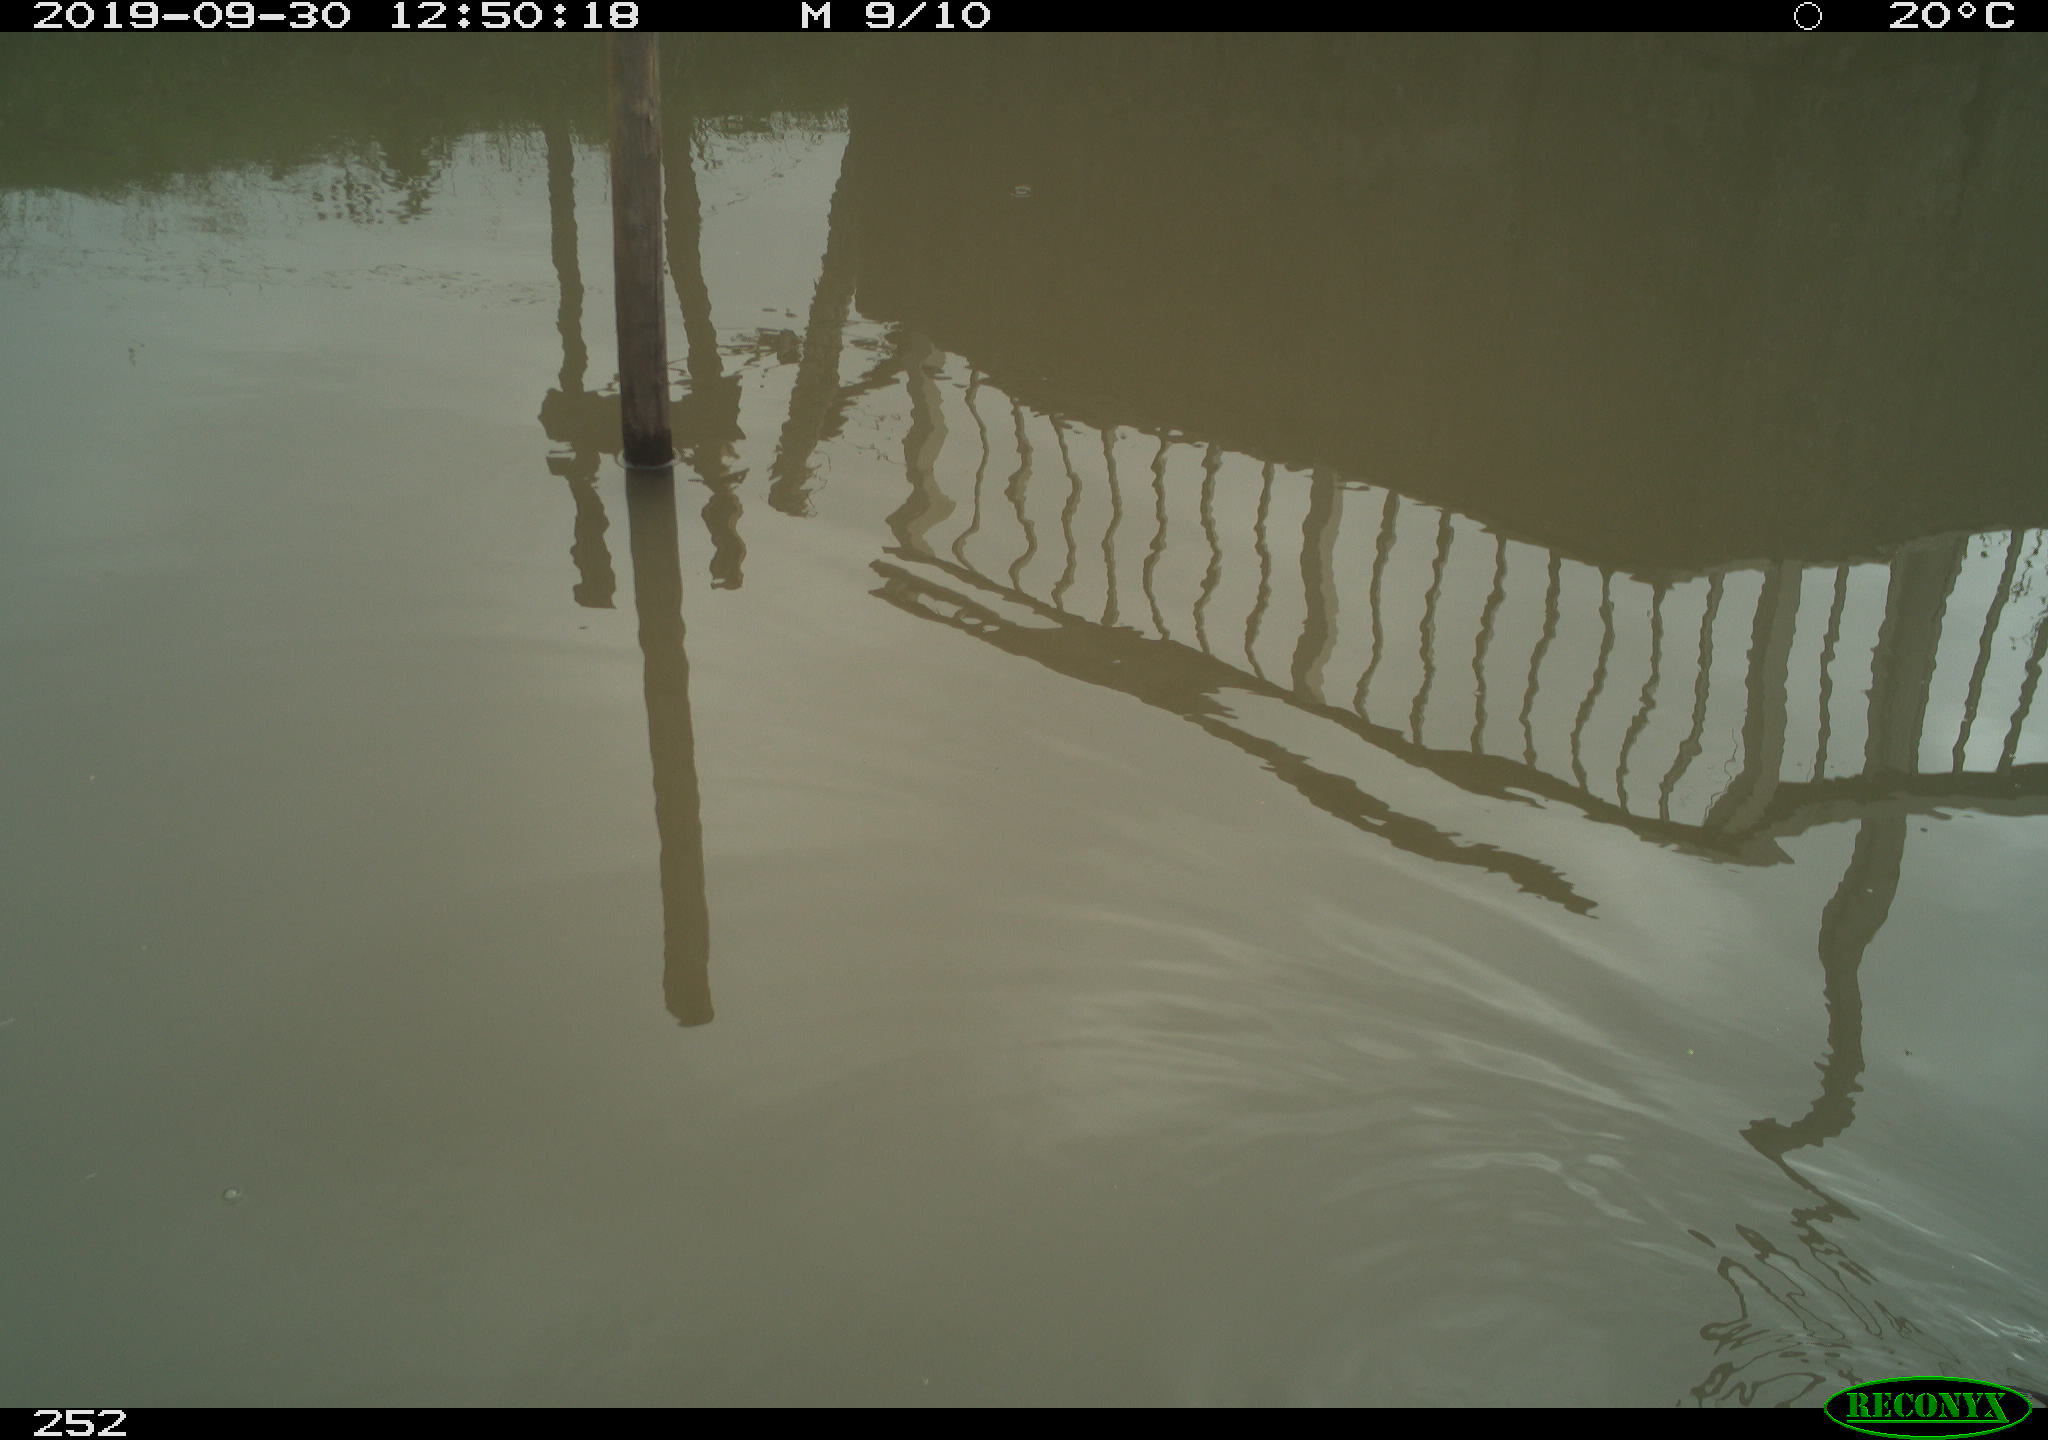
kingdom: Animalia
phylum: Chordata
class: Aves
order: Gruiformes
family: Rallidae
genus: Gallinula
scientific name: Gallinula chloropus
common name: Common moorhen
